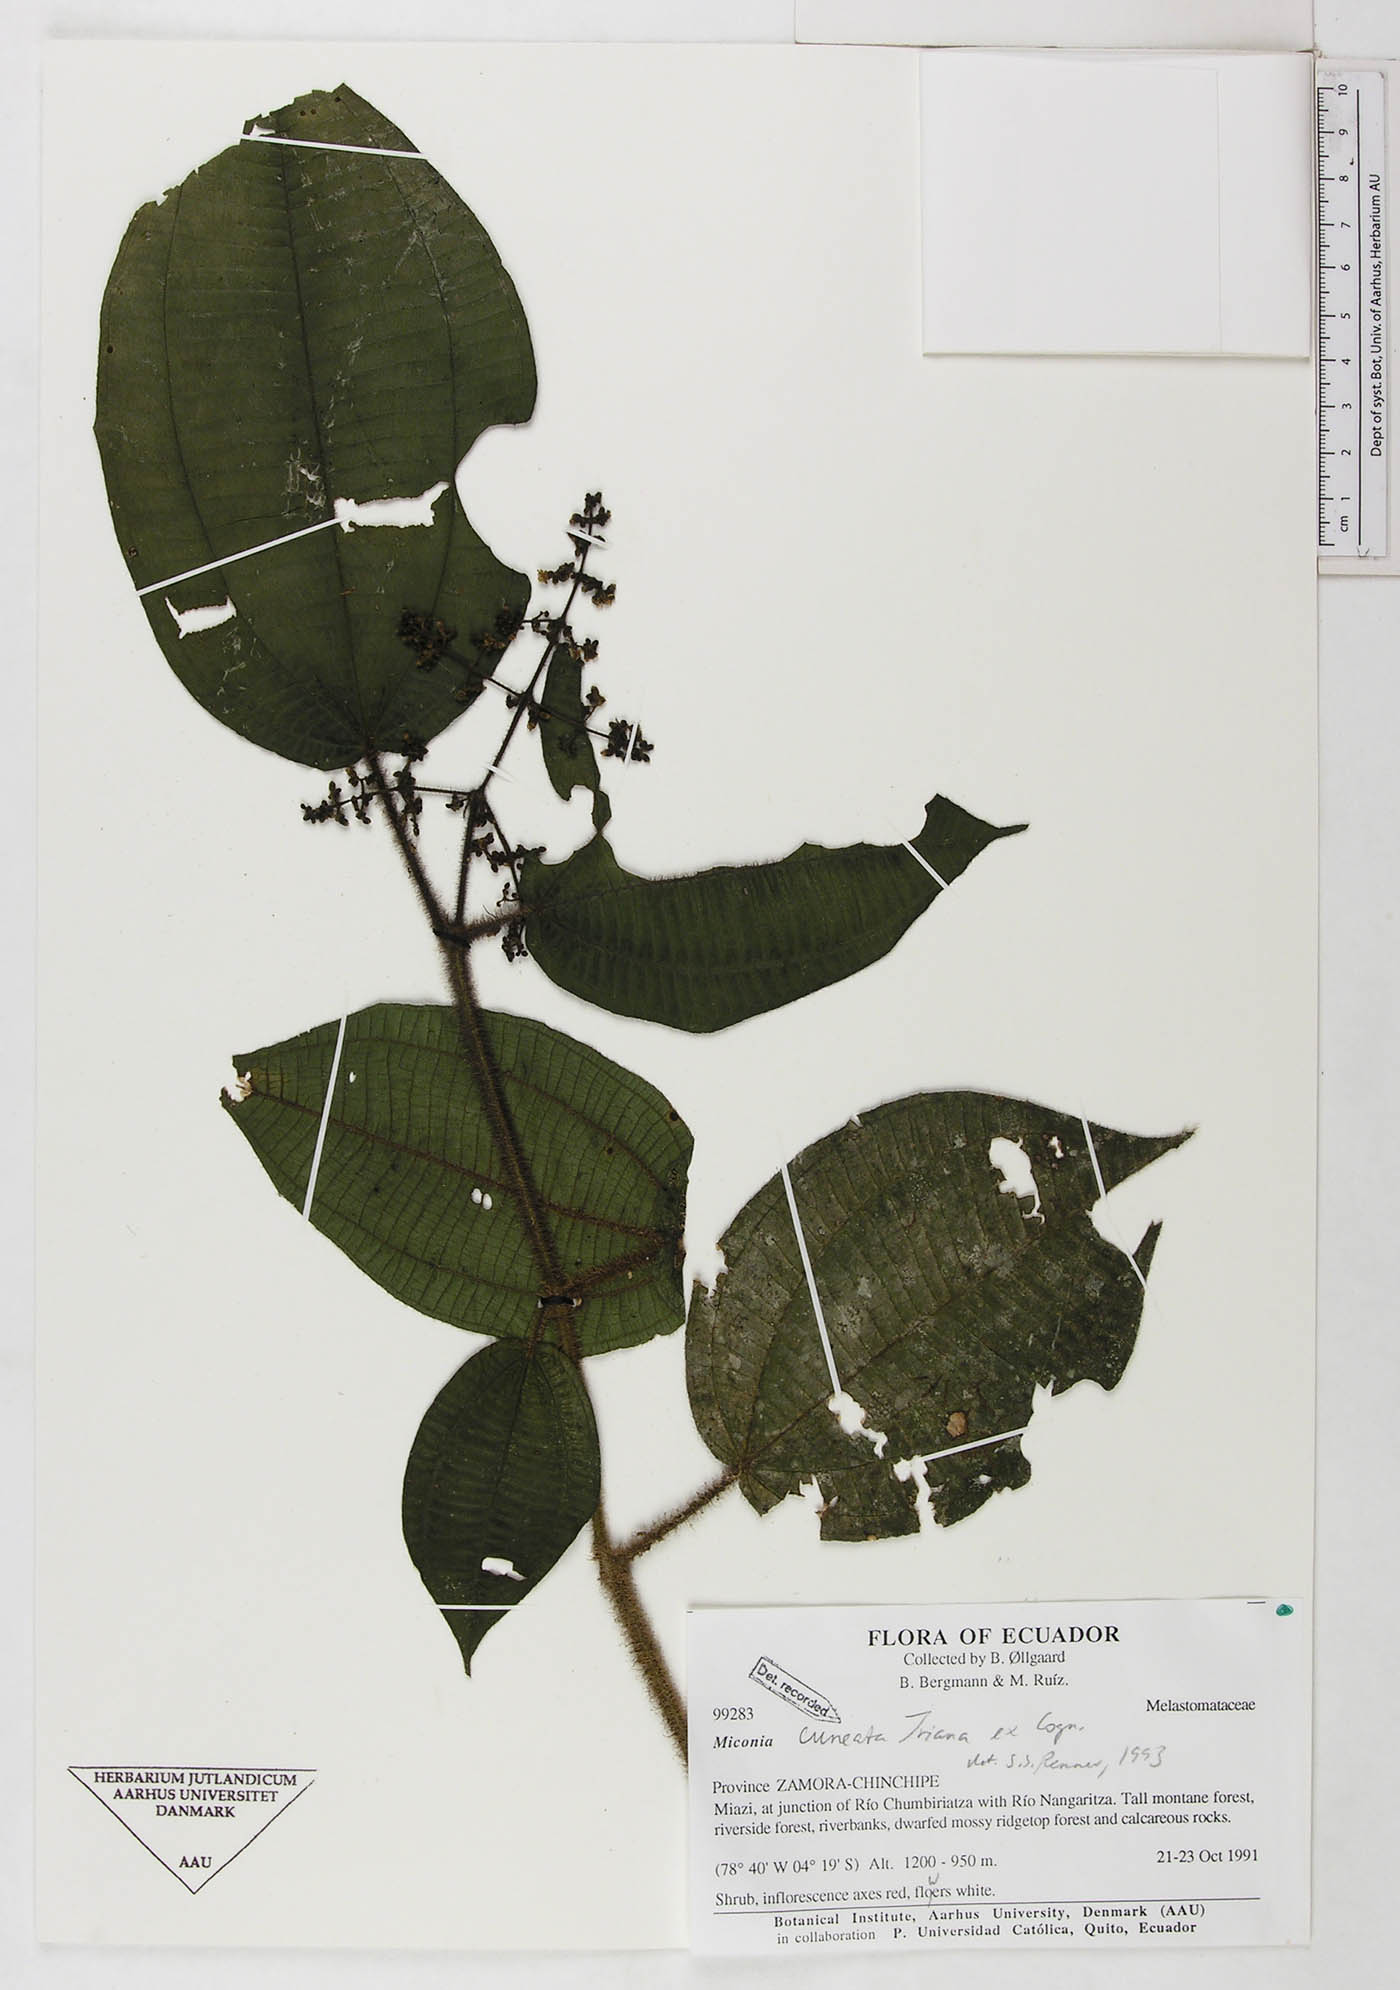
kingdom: Plantae
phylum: Tracheophyta
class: Magnoliopsida
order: Myrtales
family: Melastomataceae
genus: Miconia
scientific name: Miconia cuneata
